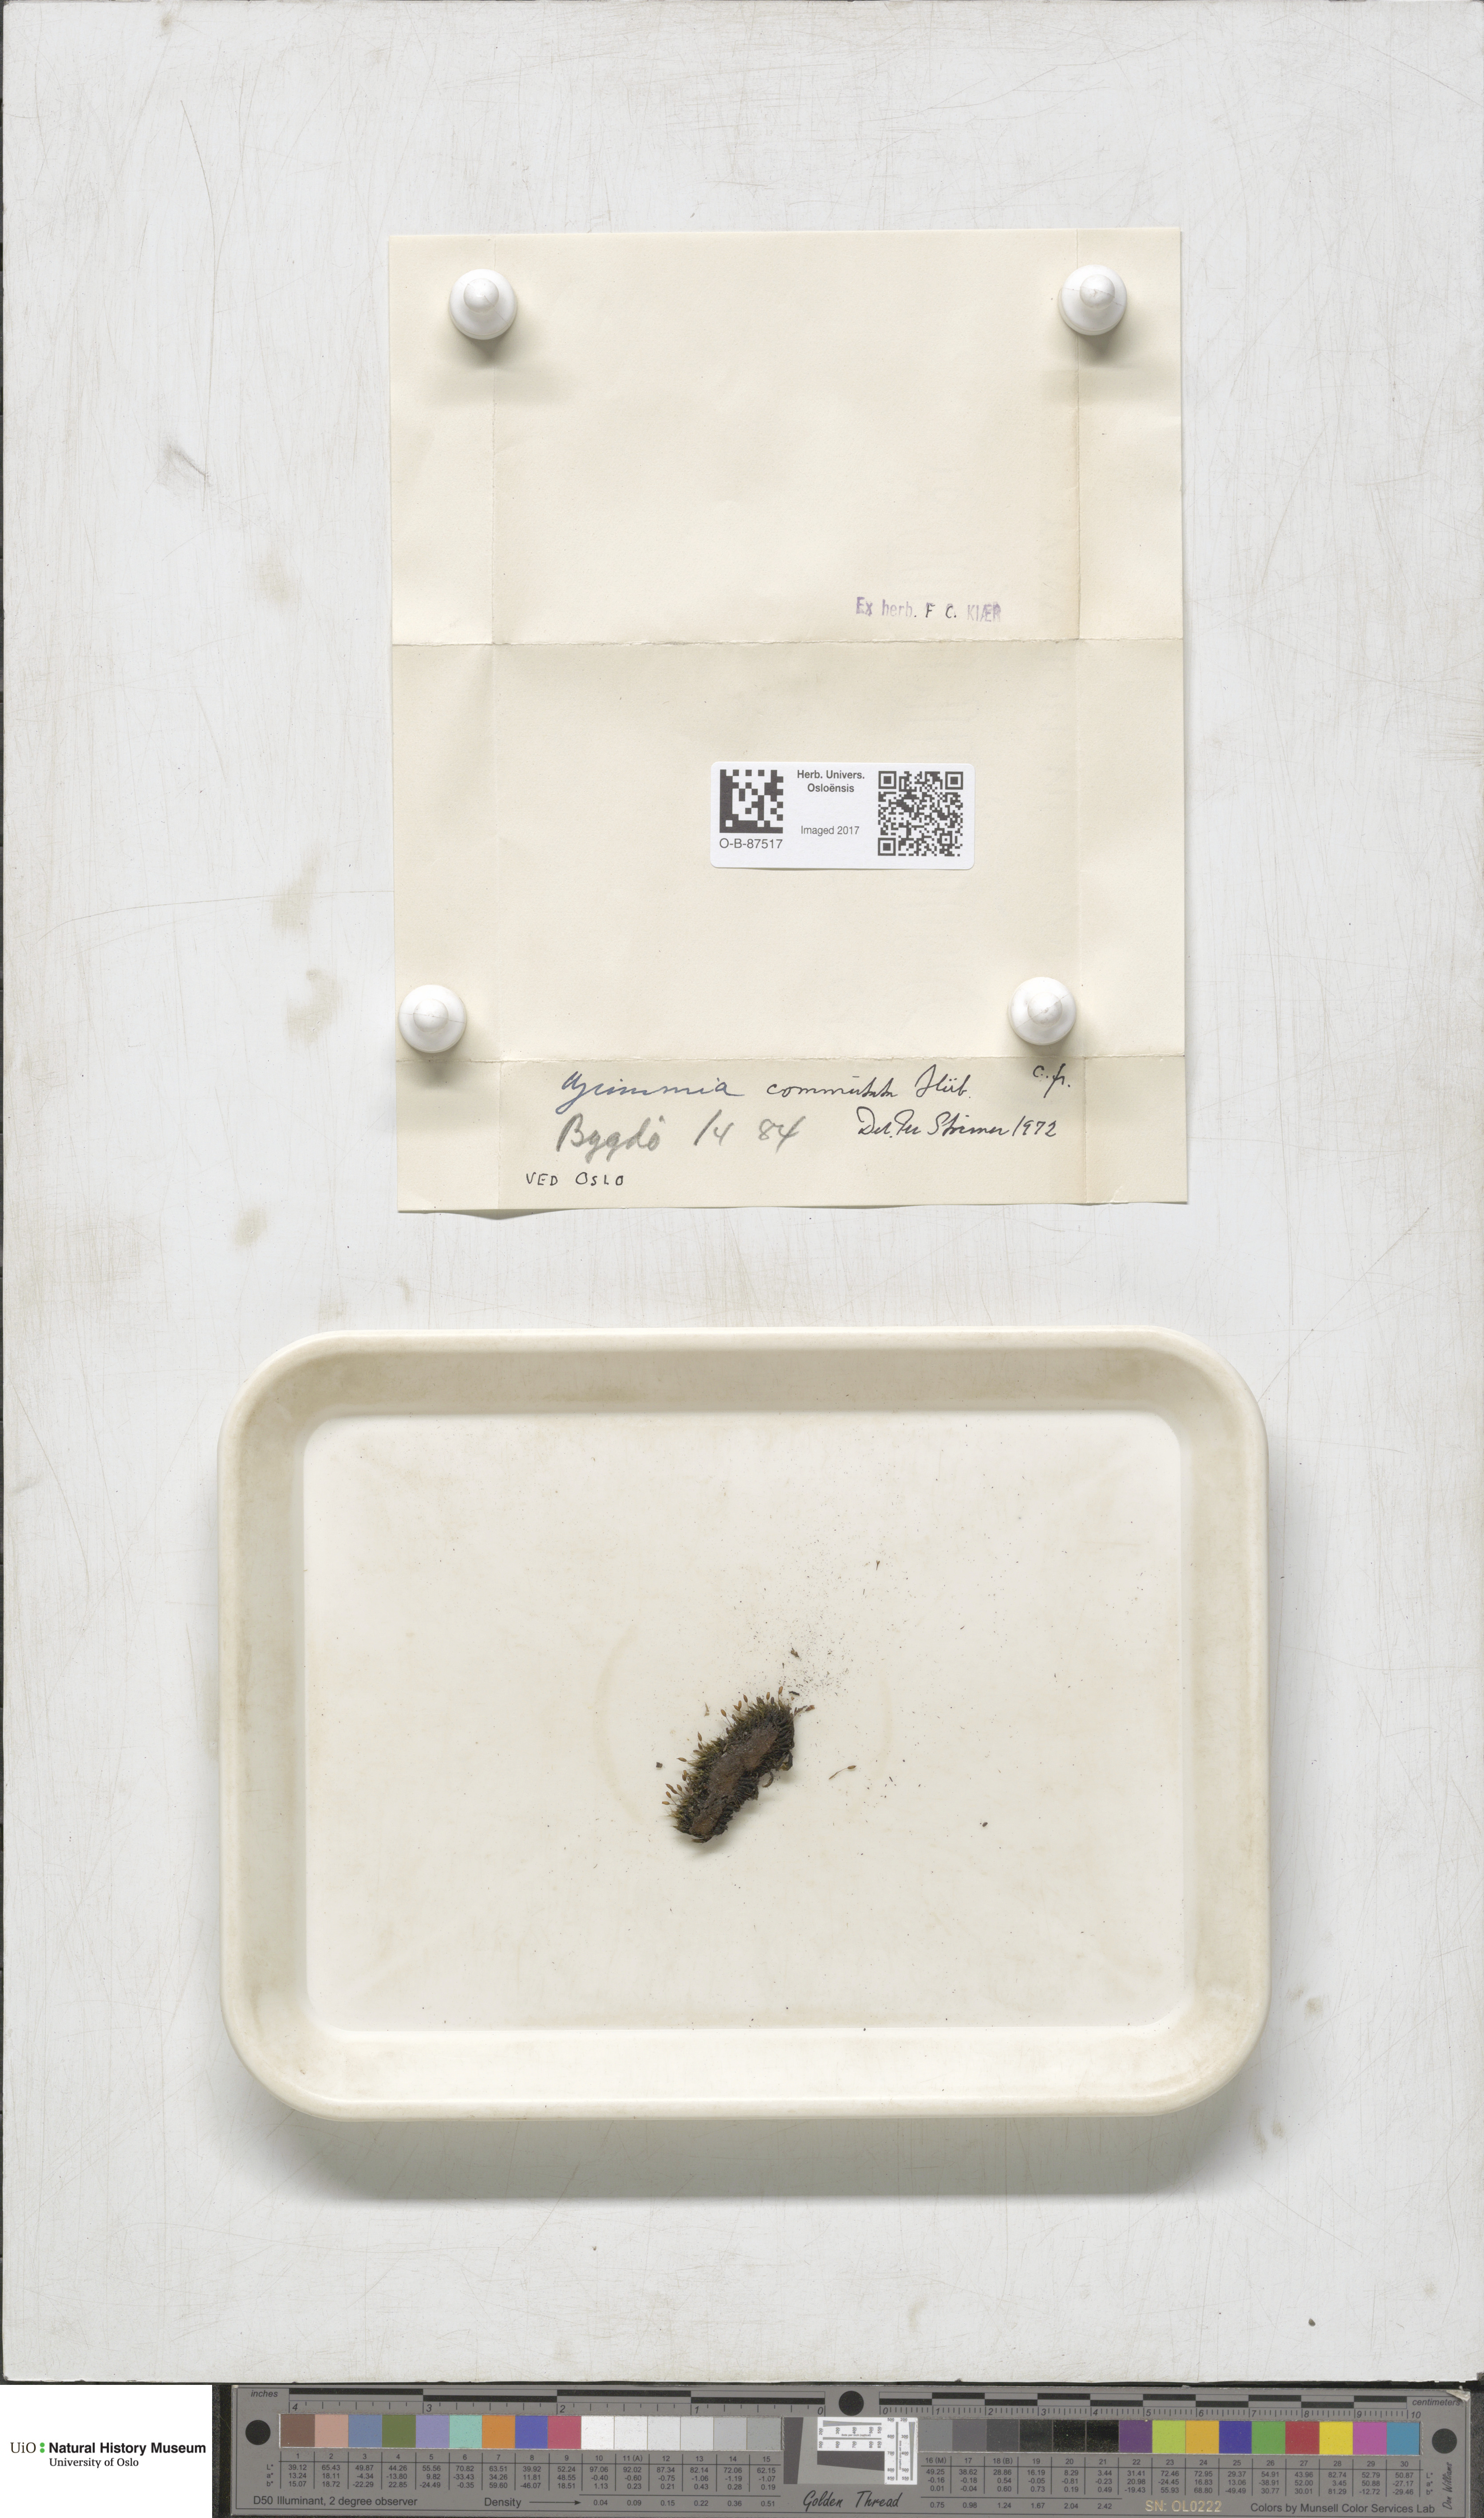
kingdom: Plantae
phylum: Bryophyta
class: Bryopsida
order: Grimmiales
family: Grimmiaceae
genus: Grimmia
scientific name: Grimmia ovalis
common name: Oval grimmia
